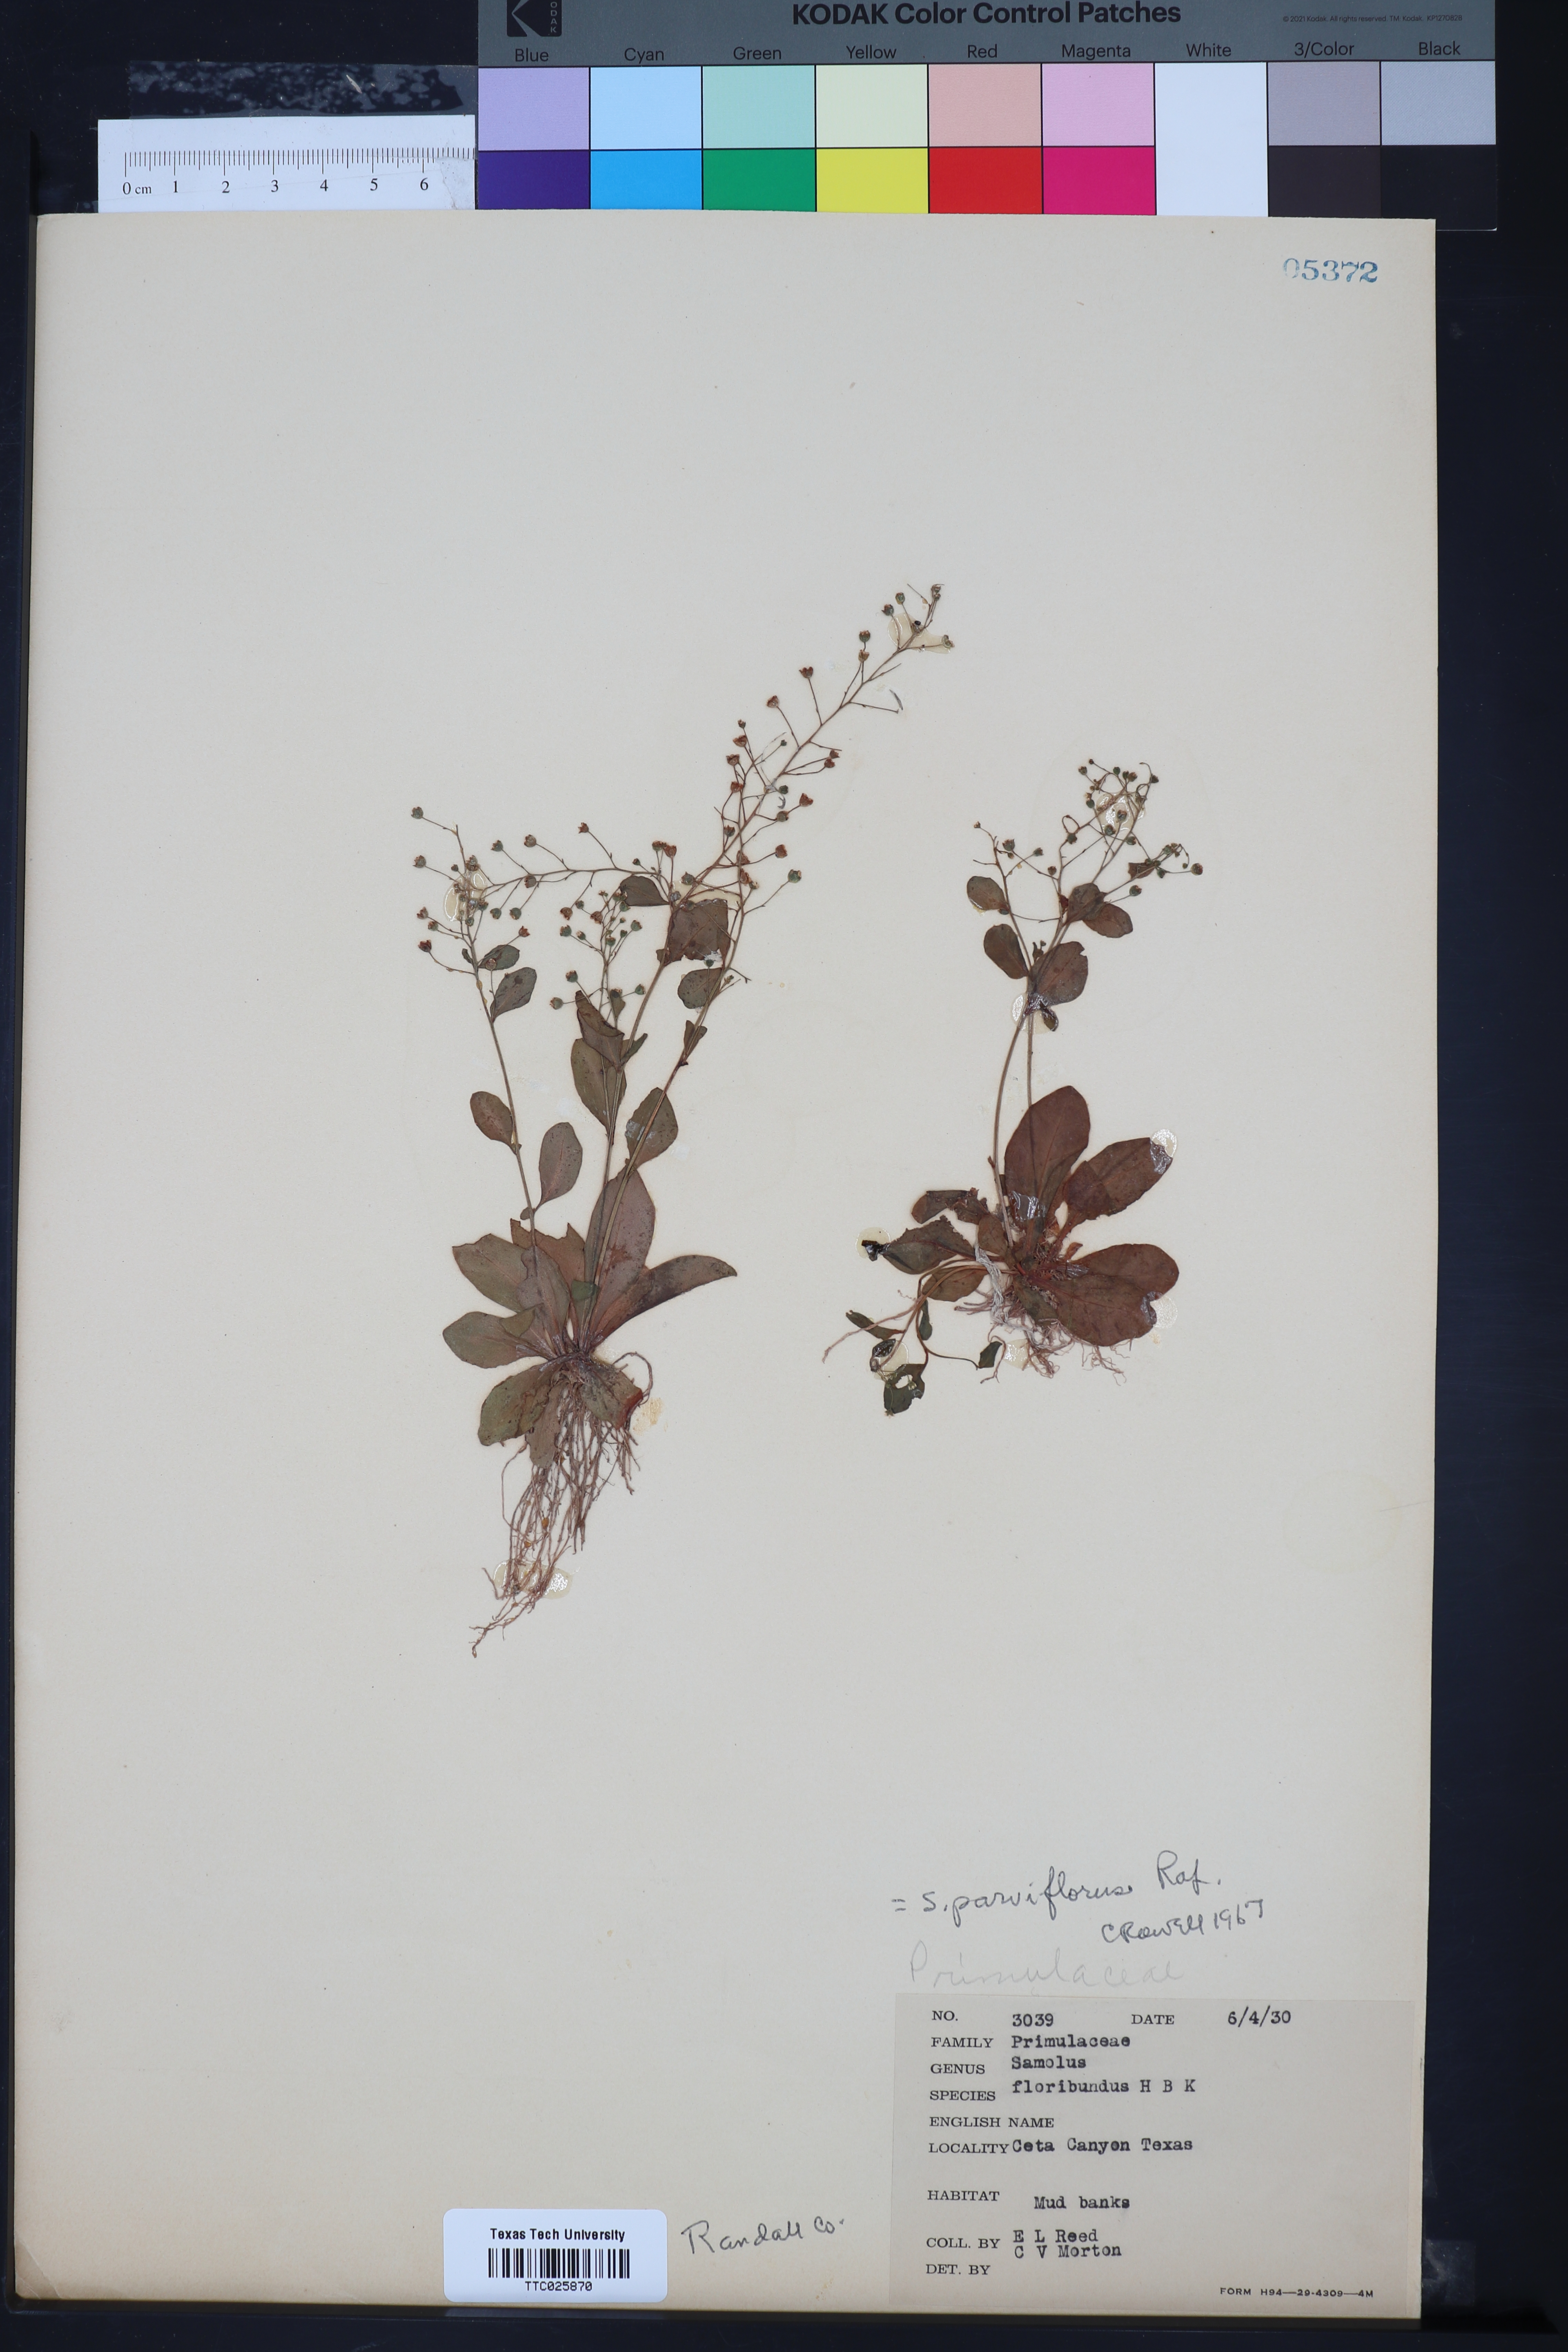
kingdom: Plantae
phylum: Tracheophyta
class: Magnoliopsida
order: Ericales
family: Primulaceae
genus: Samolus
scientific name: Samolus parviflorus
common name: False water pimpernel
